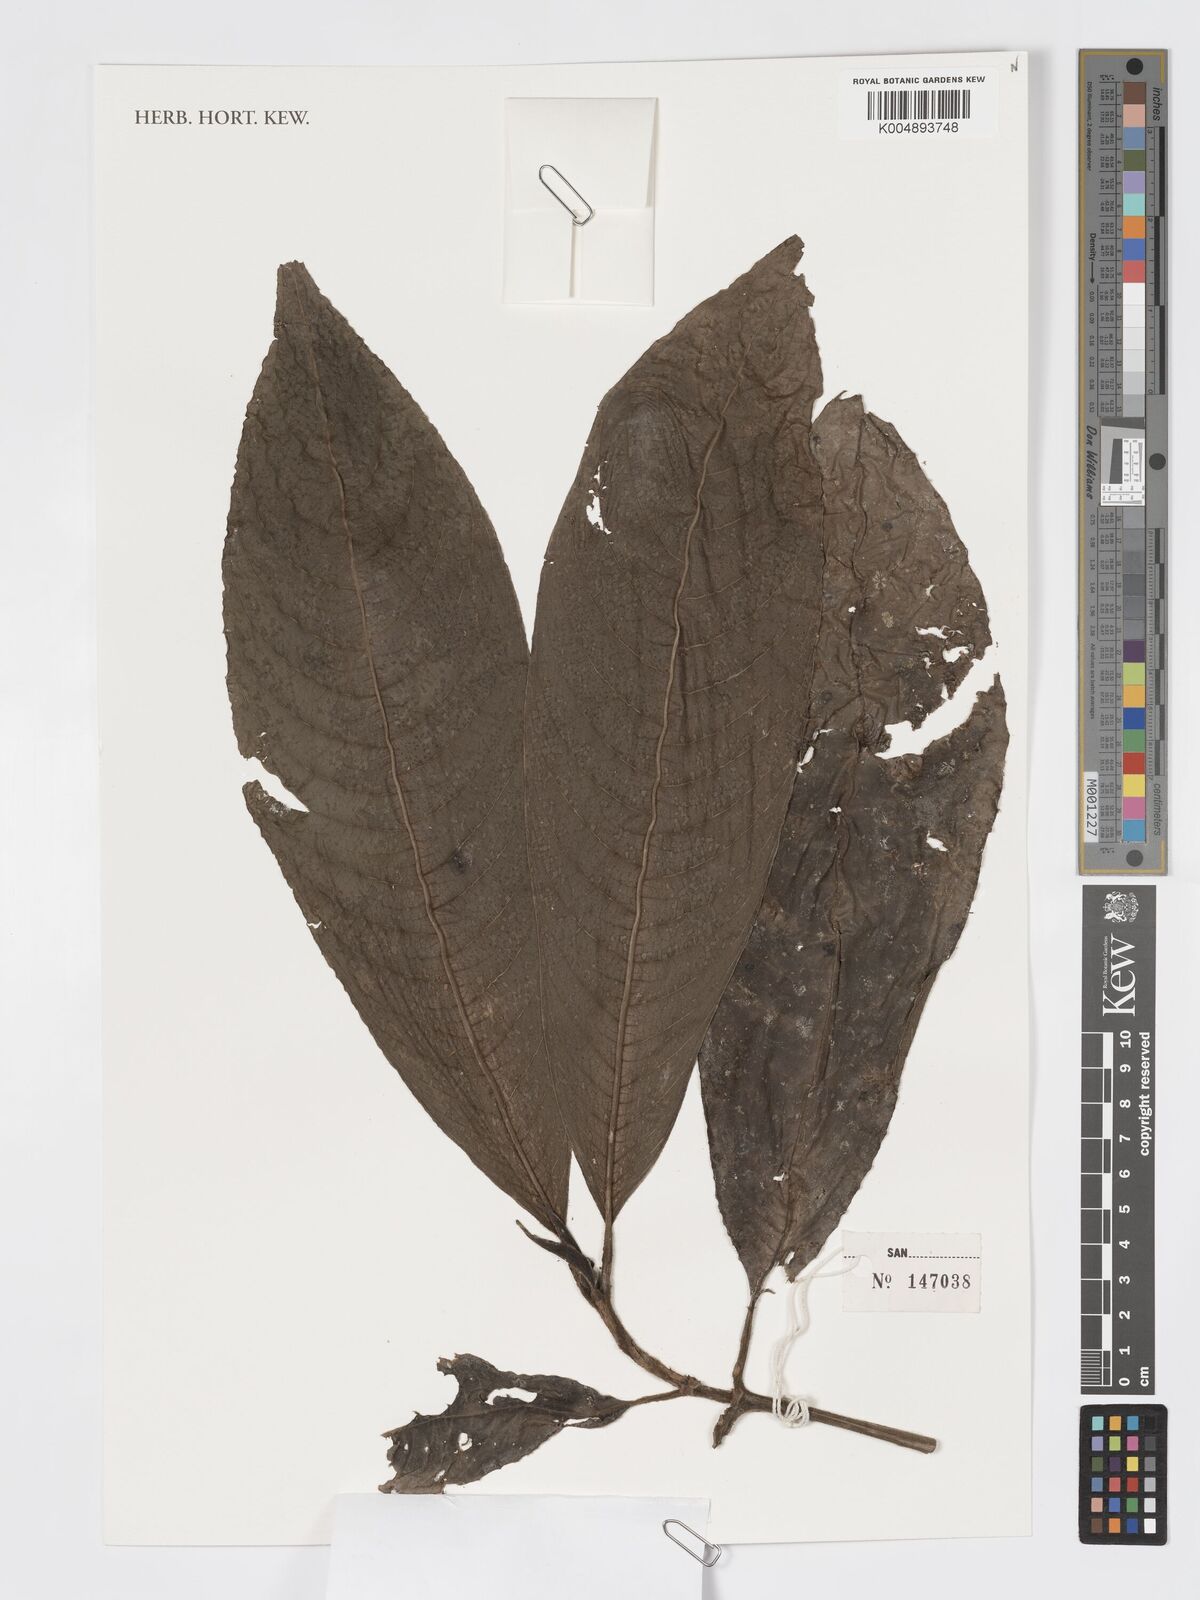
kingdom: Plantae
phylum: Tracheophyta
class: Magnoliopsida
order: Gentianales
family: Rubiaceae
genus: Praravinia
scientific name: Praravinia suberosa
